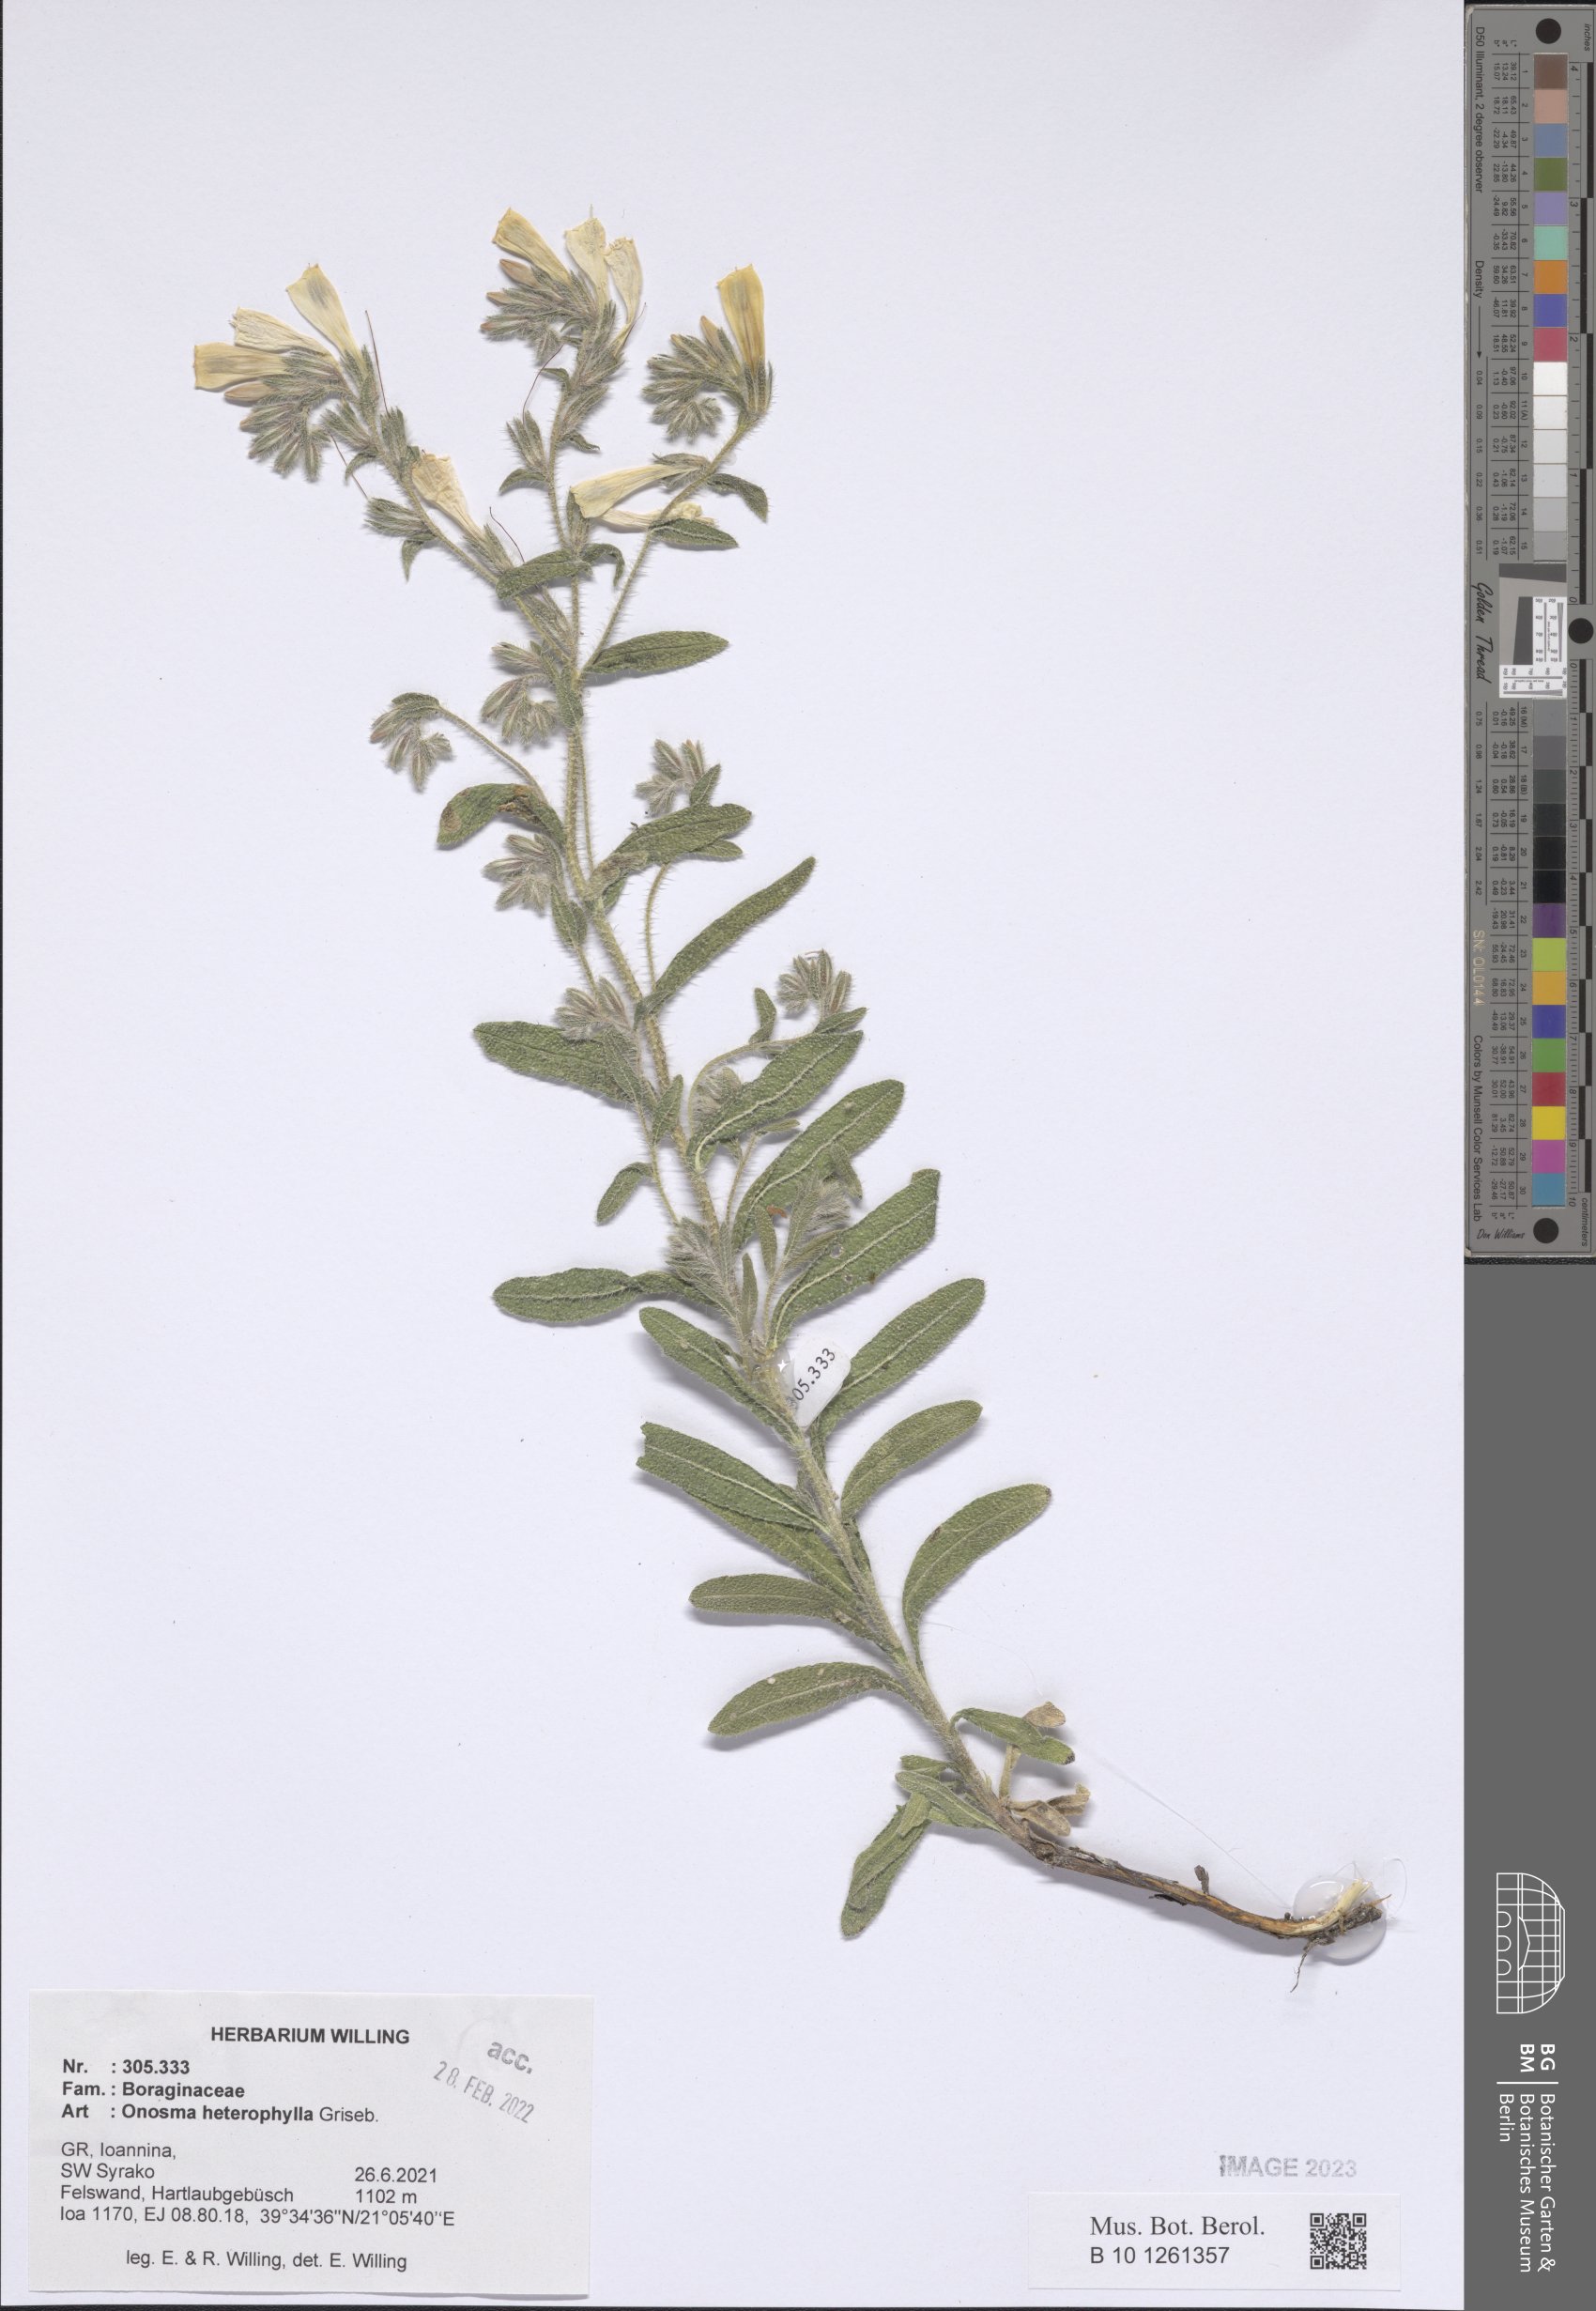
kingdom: Plantae
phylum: Tracheophyta
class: Magnoliopsida
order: Boraginales
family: Boraginaceae
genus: Onosma
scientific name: Onosma heterophylla
